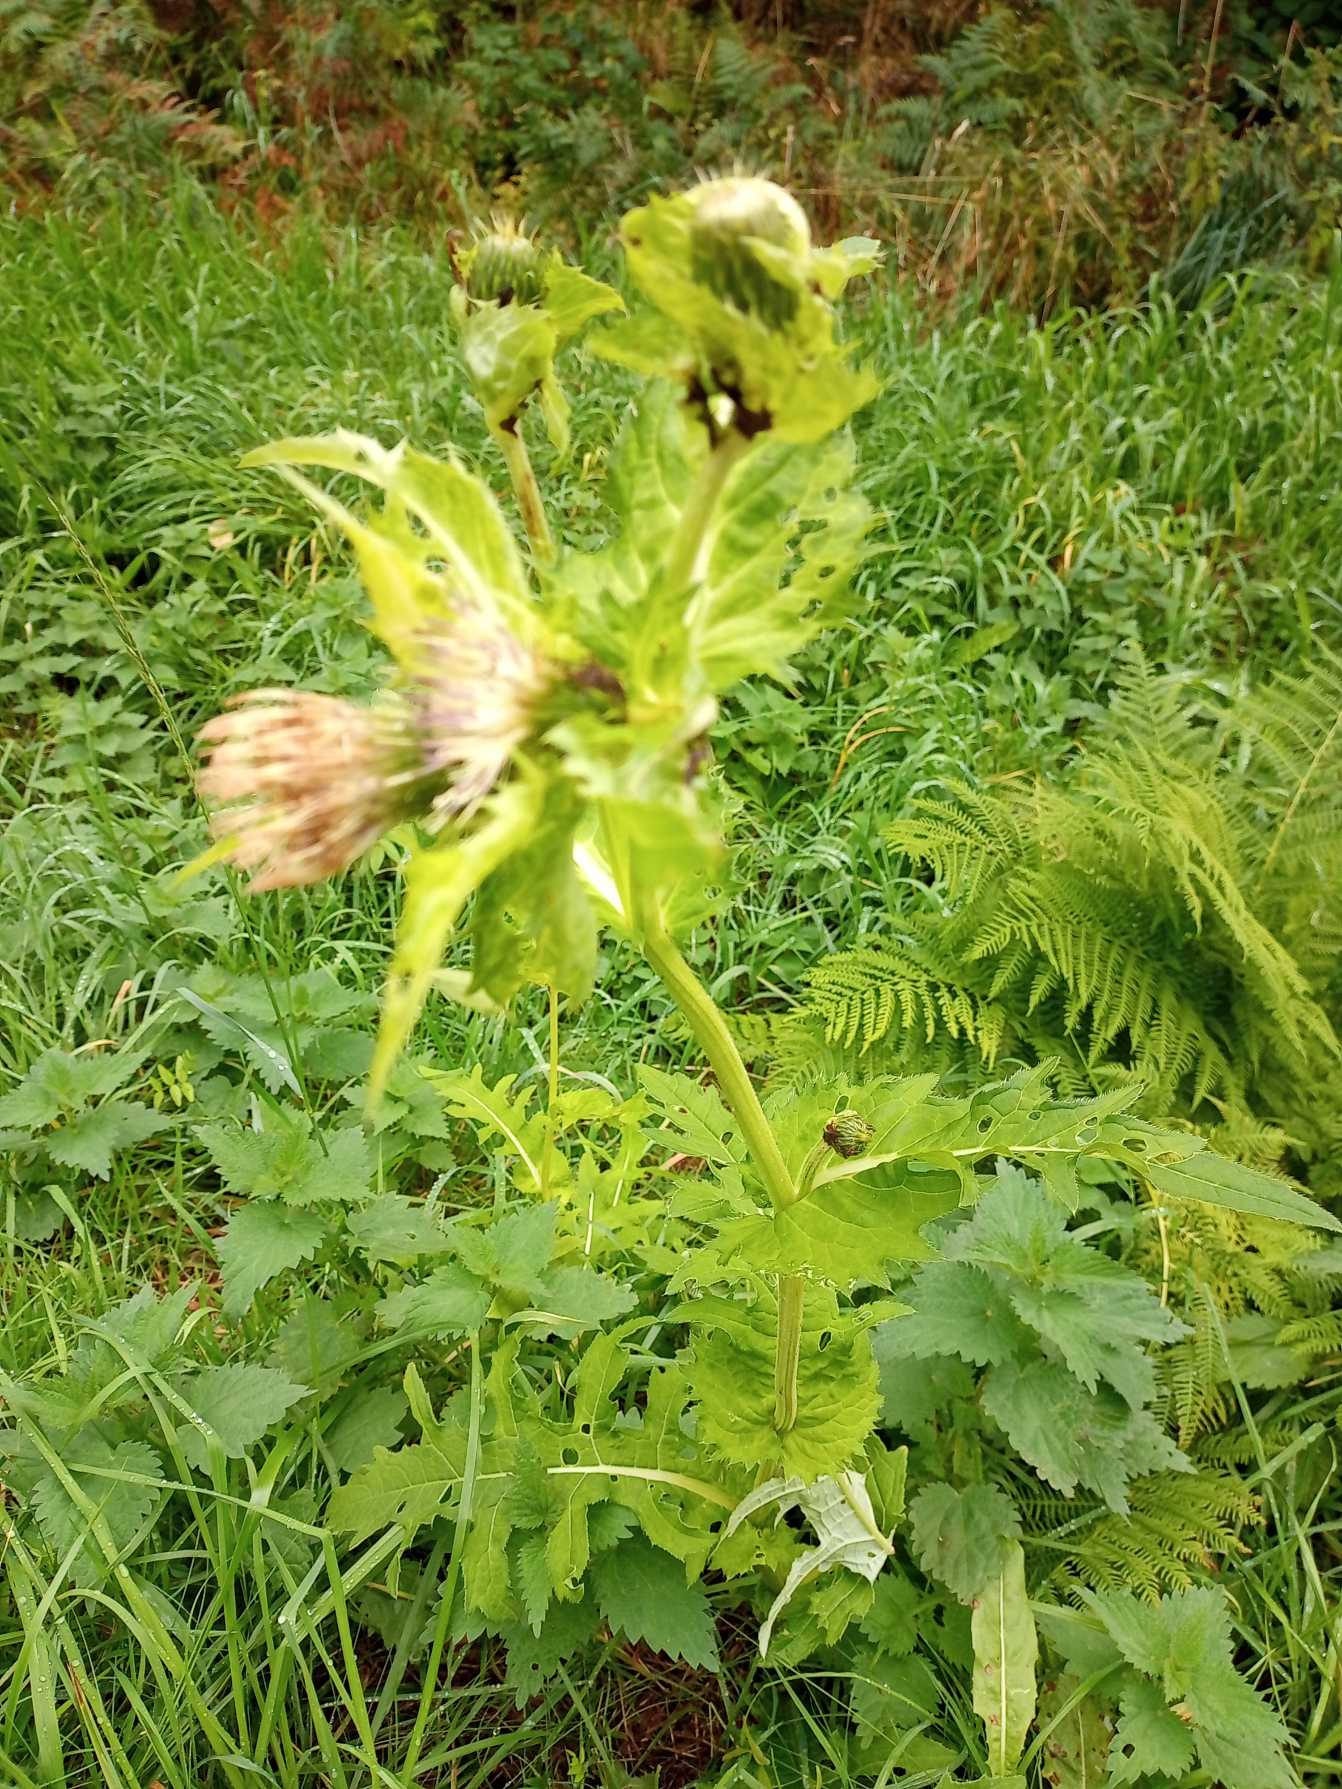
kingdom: Plantae
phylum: Tracheophyta
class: Magnoliopsida
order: Asterales
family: Asteraceae
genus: Cirsium
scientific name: Cirsium oleraceum
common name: Kål-tidsel
